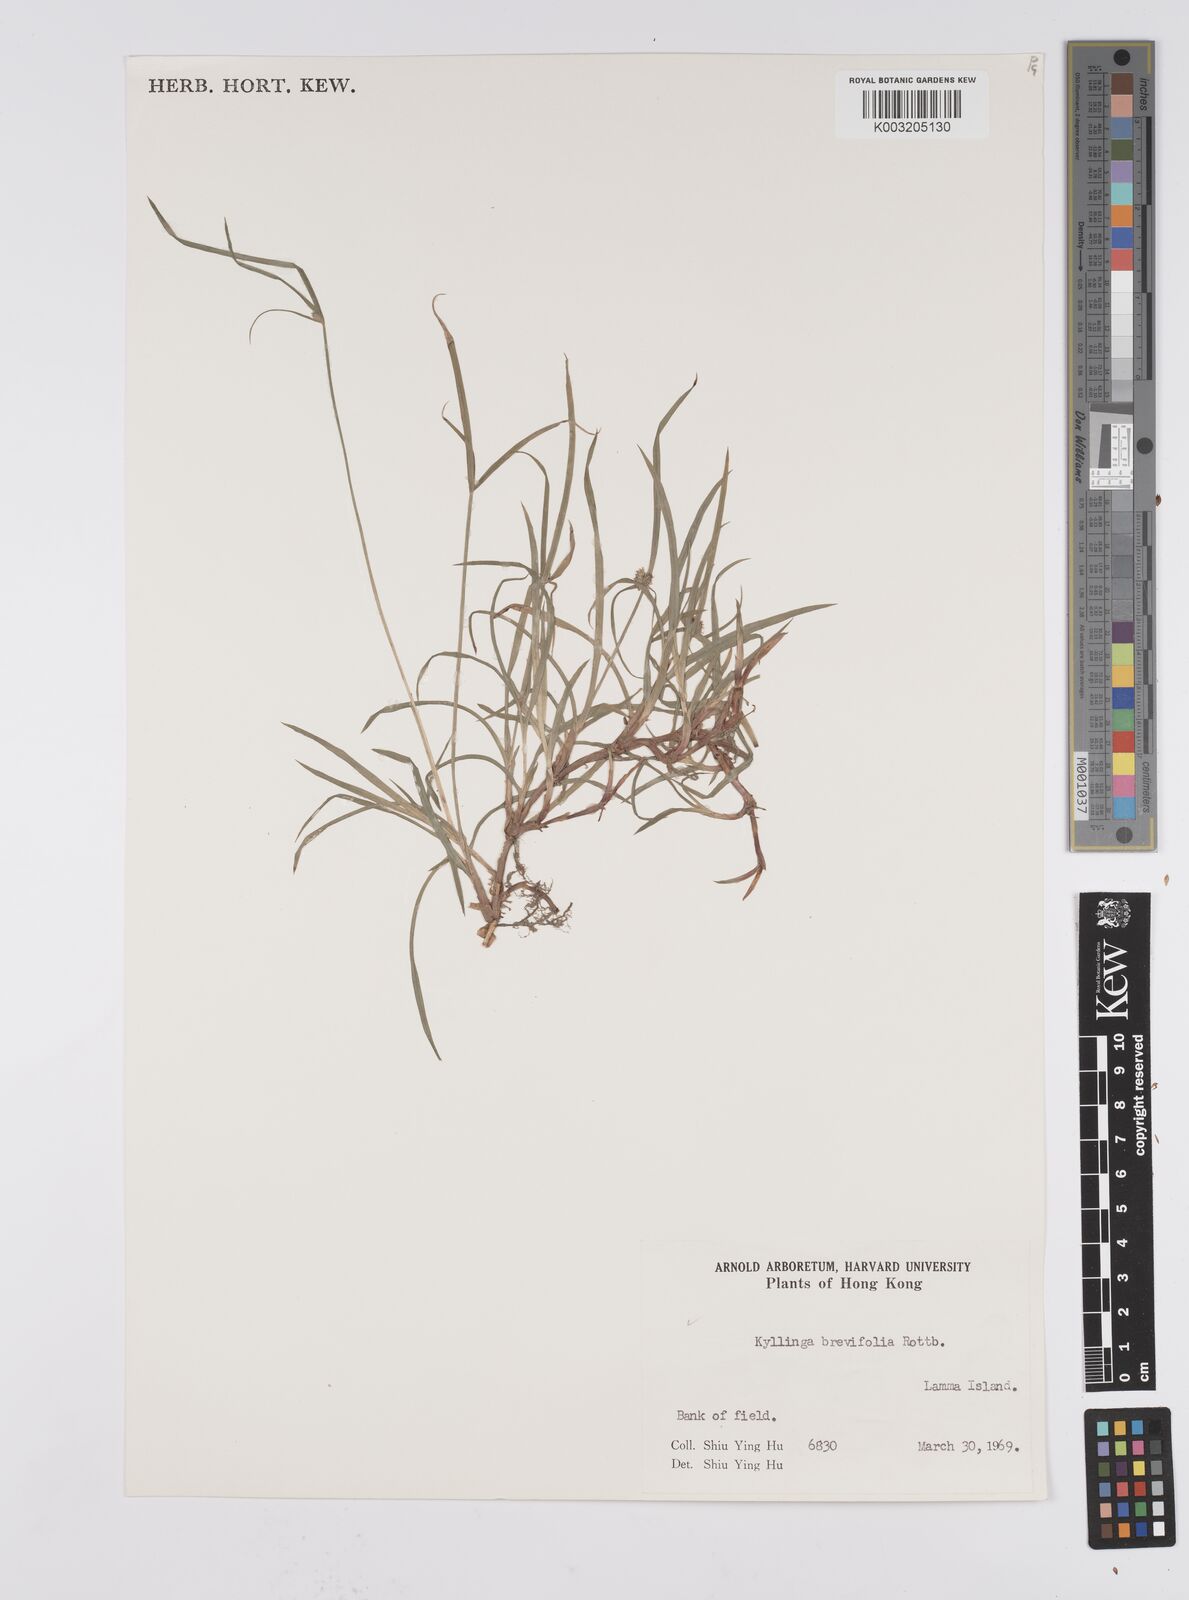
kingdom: Plantae
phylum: Tracheophyta
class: Liliopsida
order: Poales
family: Cyperaceae
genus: Cyperus
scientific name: Cyperus brevifolius
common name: Globe kyllinga
